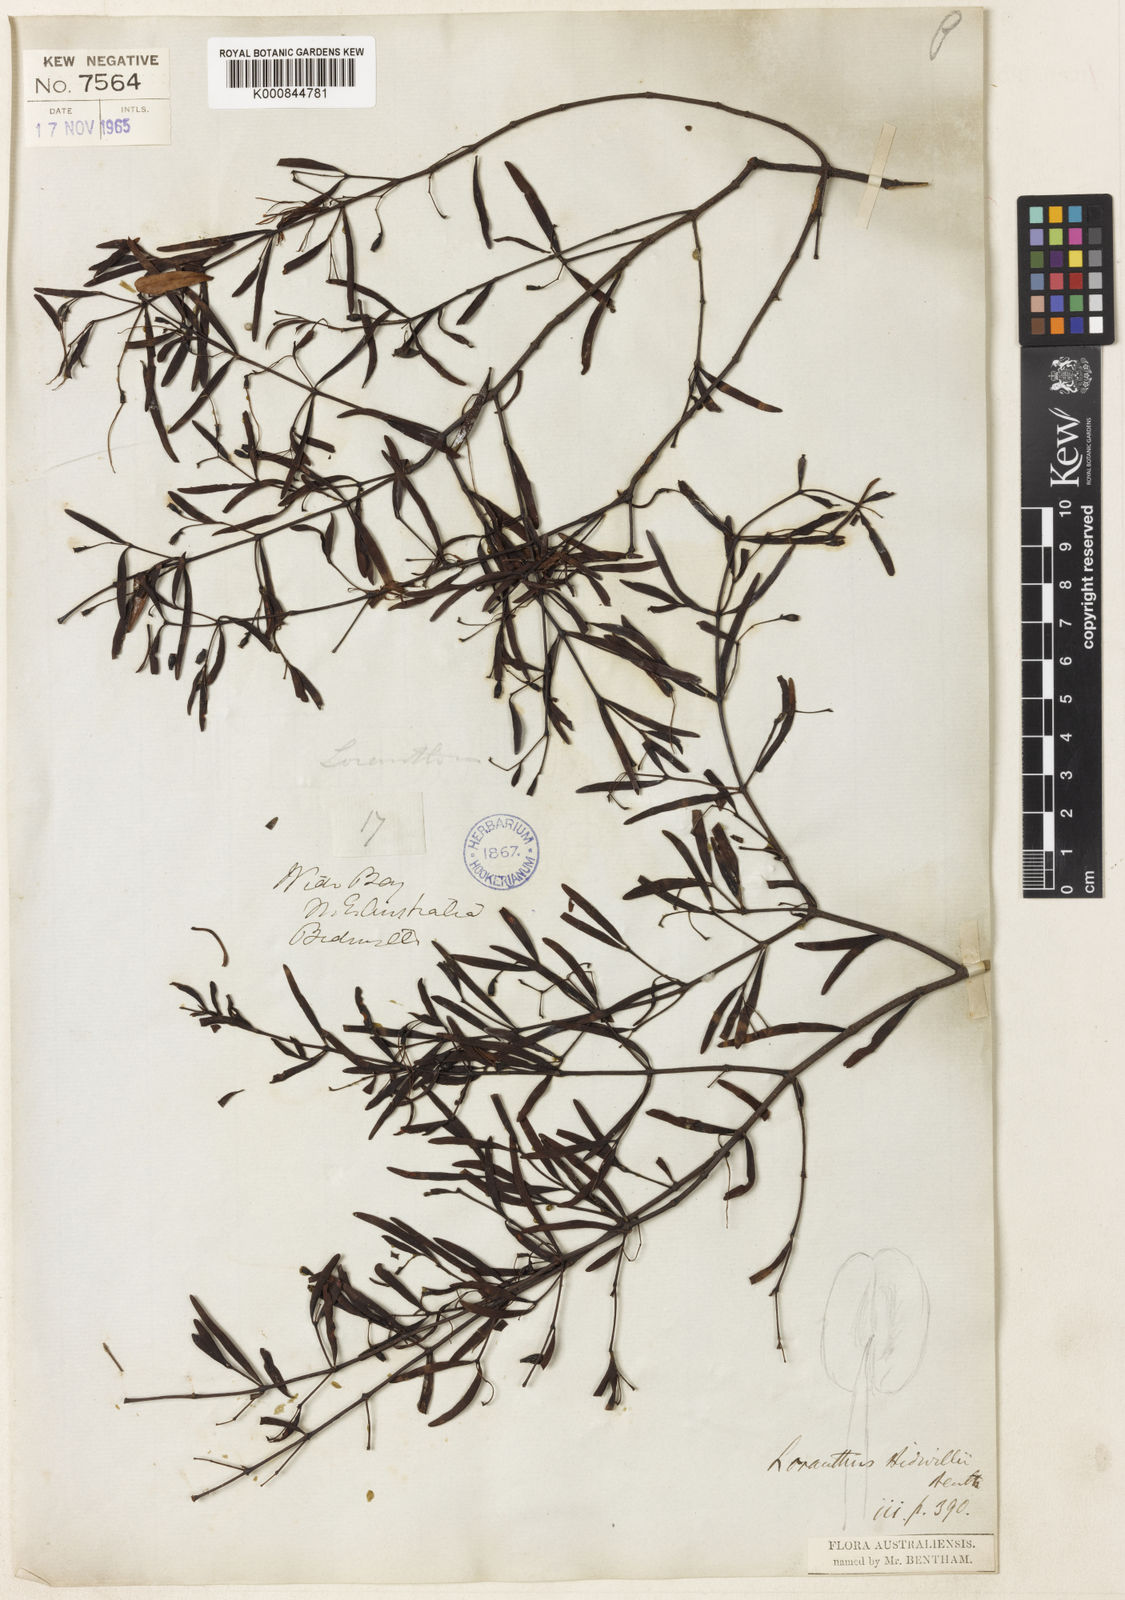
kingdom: Plantae
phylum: Tracheophyta
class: Magnoliopsida
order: Santalales
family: Loranthaceae
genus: Muellerina
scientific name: Muellerina bidwillii
